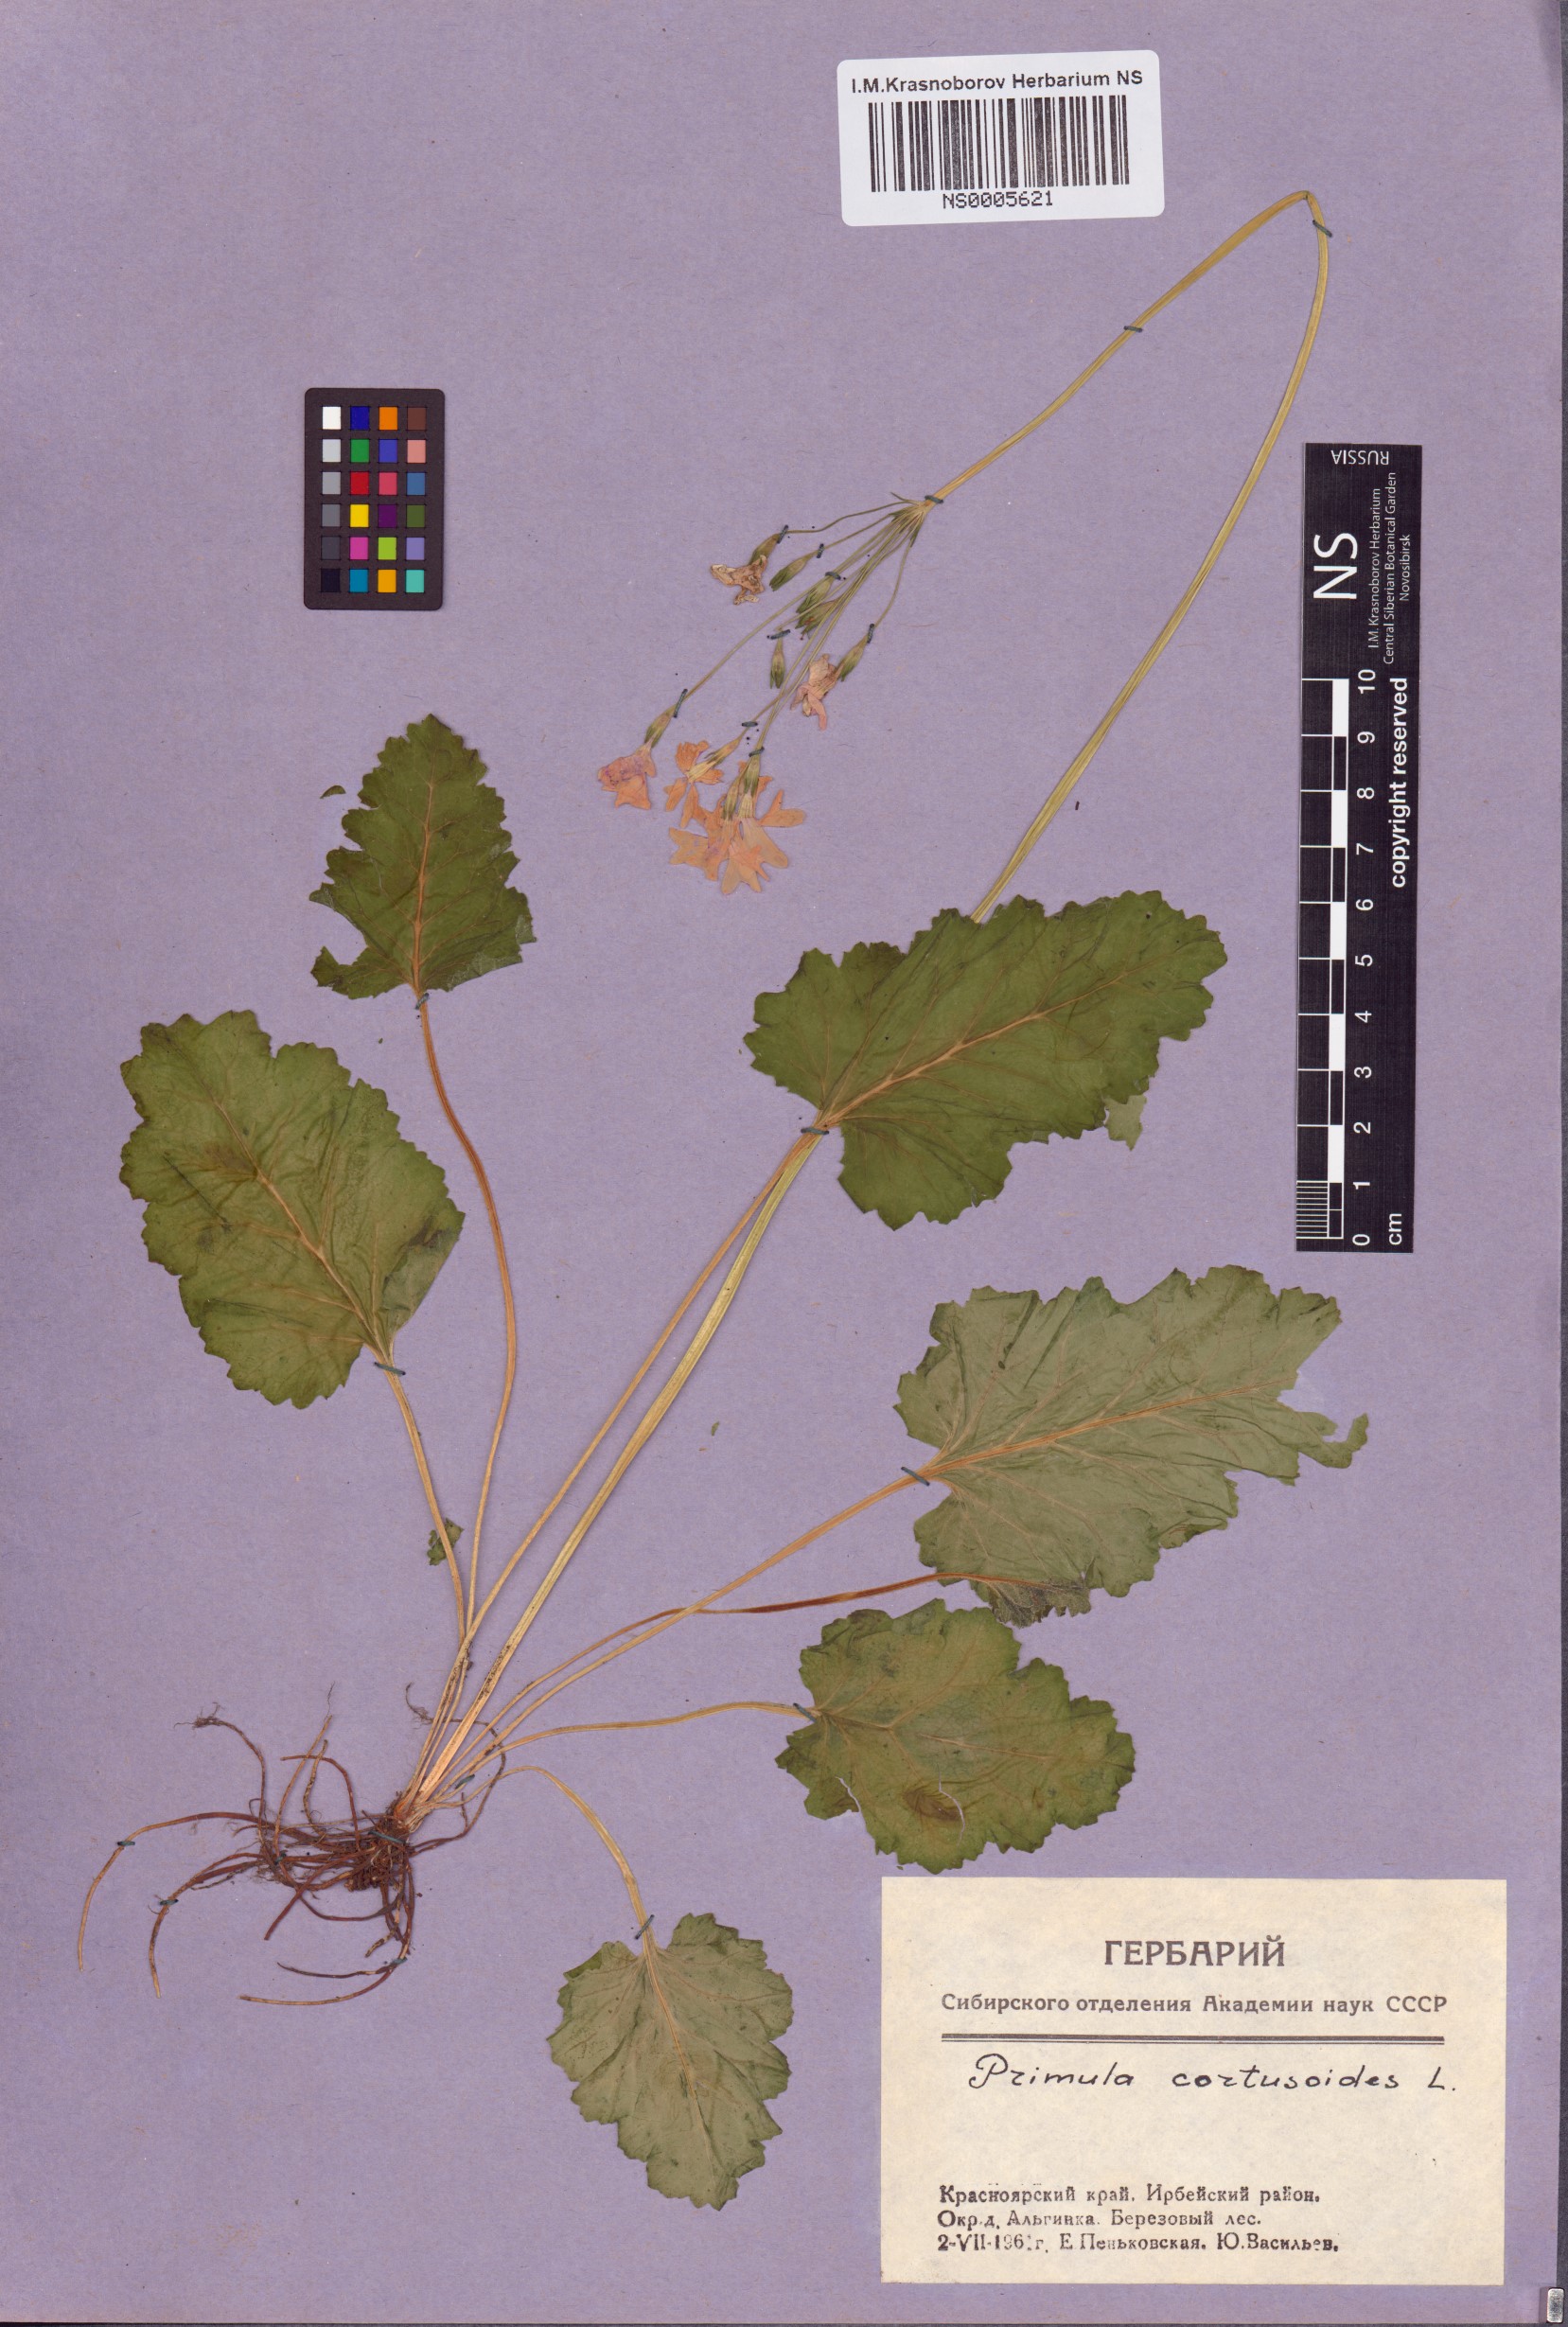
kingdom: Plantae
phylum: Tracheophyta
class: Magnoliopsida
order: Ericales
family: Primulaceae
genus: Primula
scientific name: Primula cortusoides
